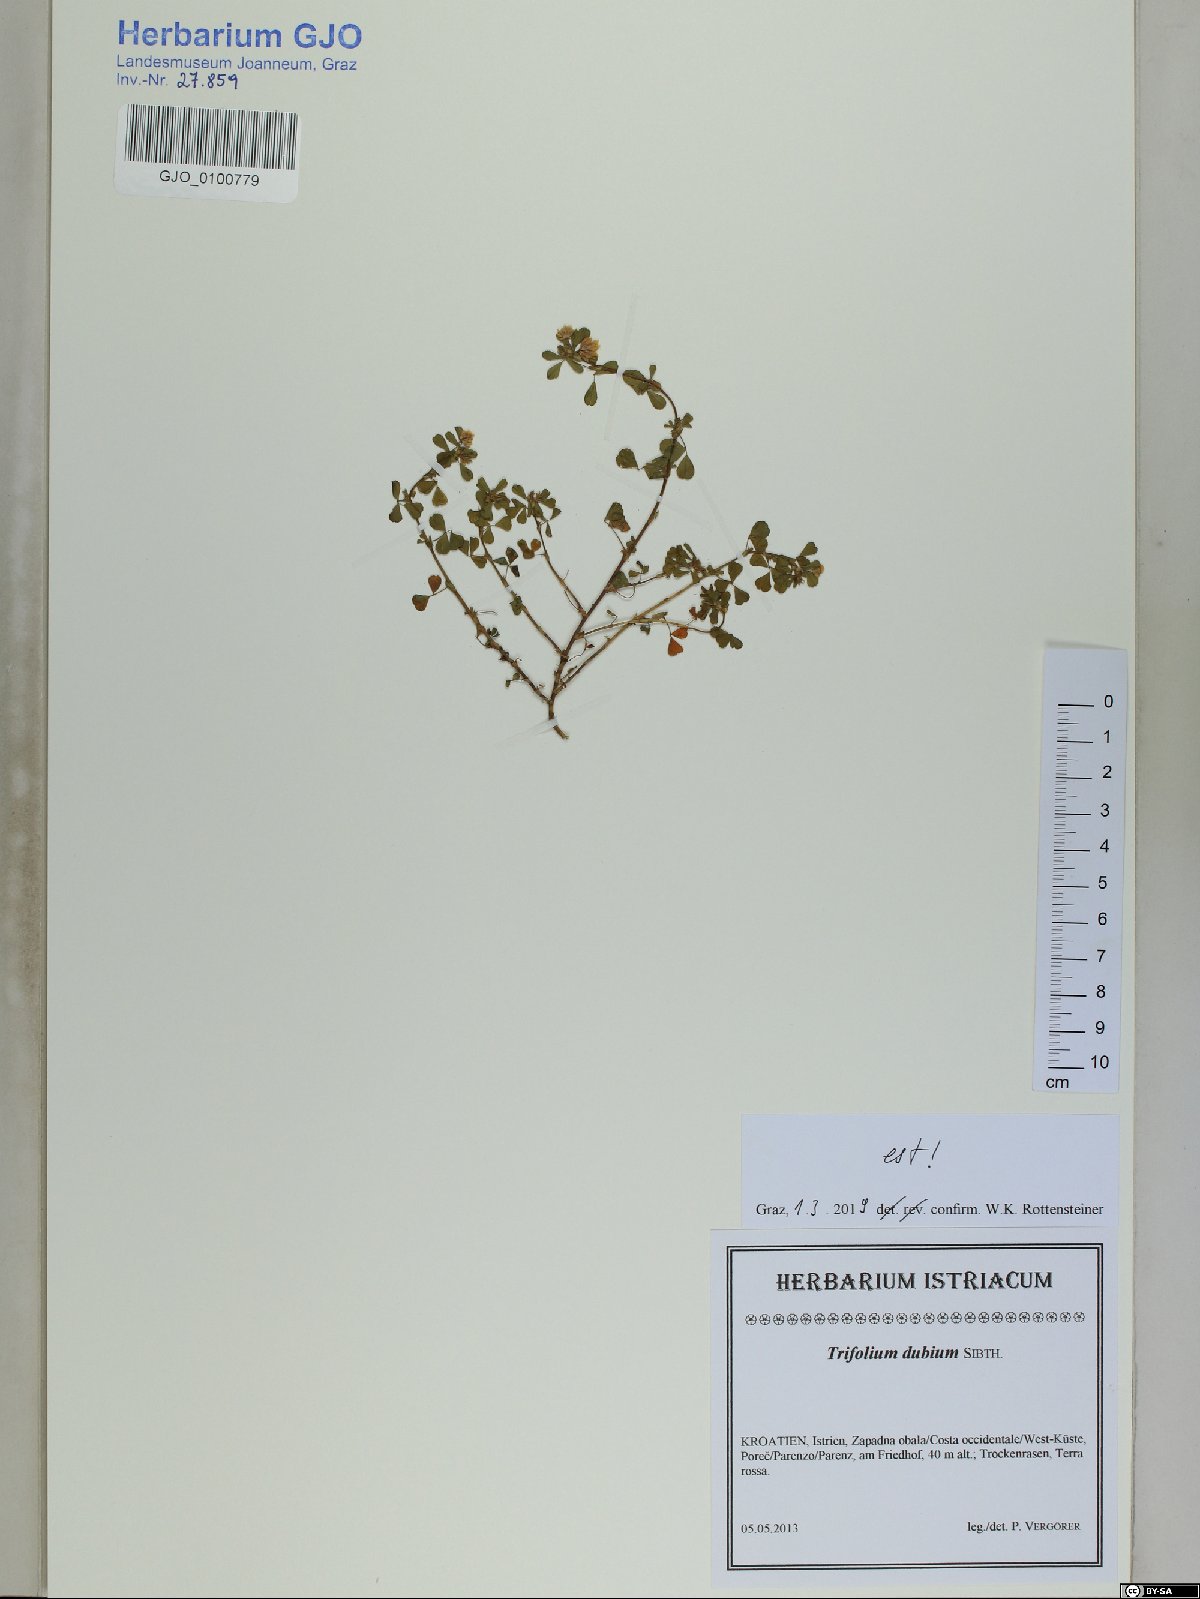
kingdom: Plantae
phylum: Tracheophyta
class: Magnoliopsida
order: Fabales
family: Fabaceae
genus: Trifolium
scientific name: Trifolium dubium
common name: Suckling clover
